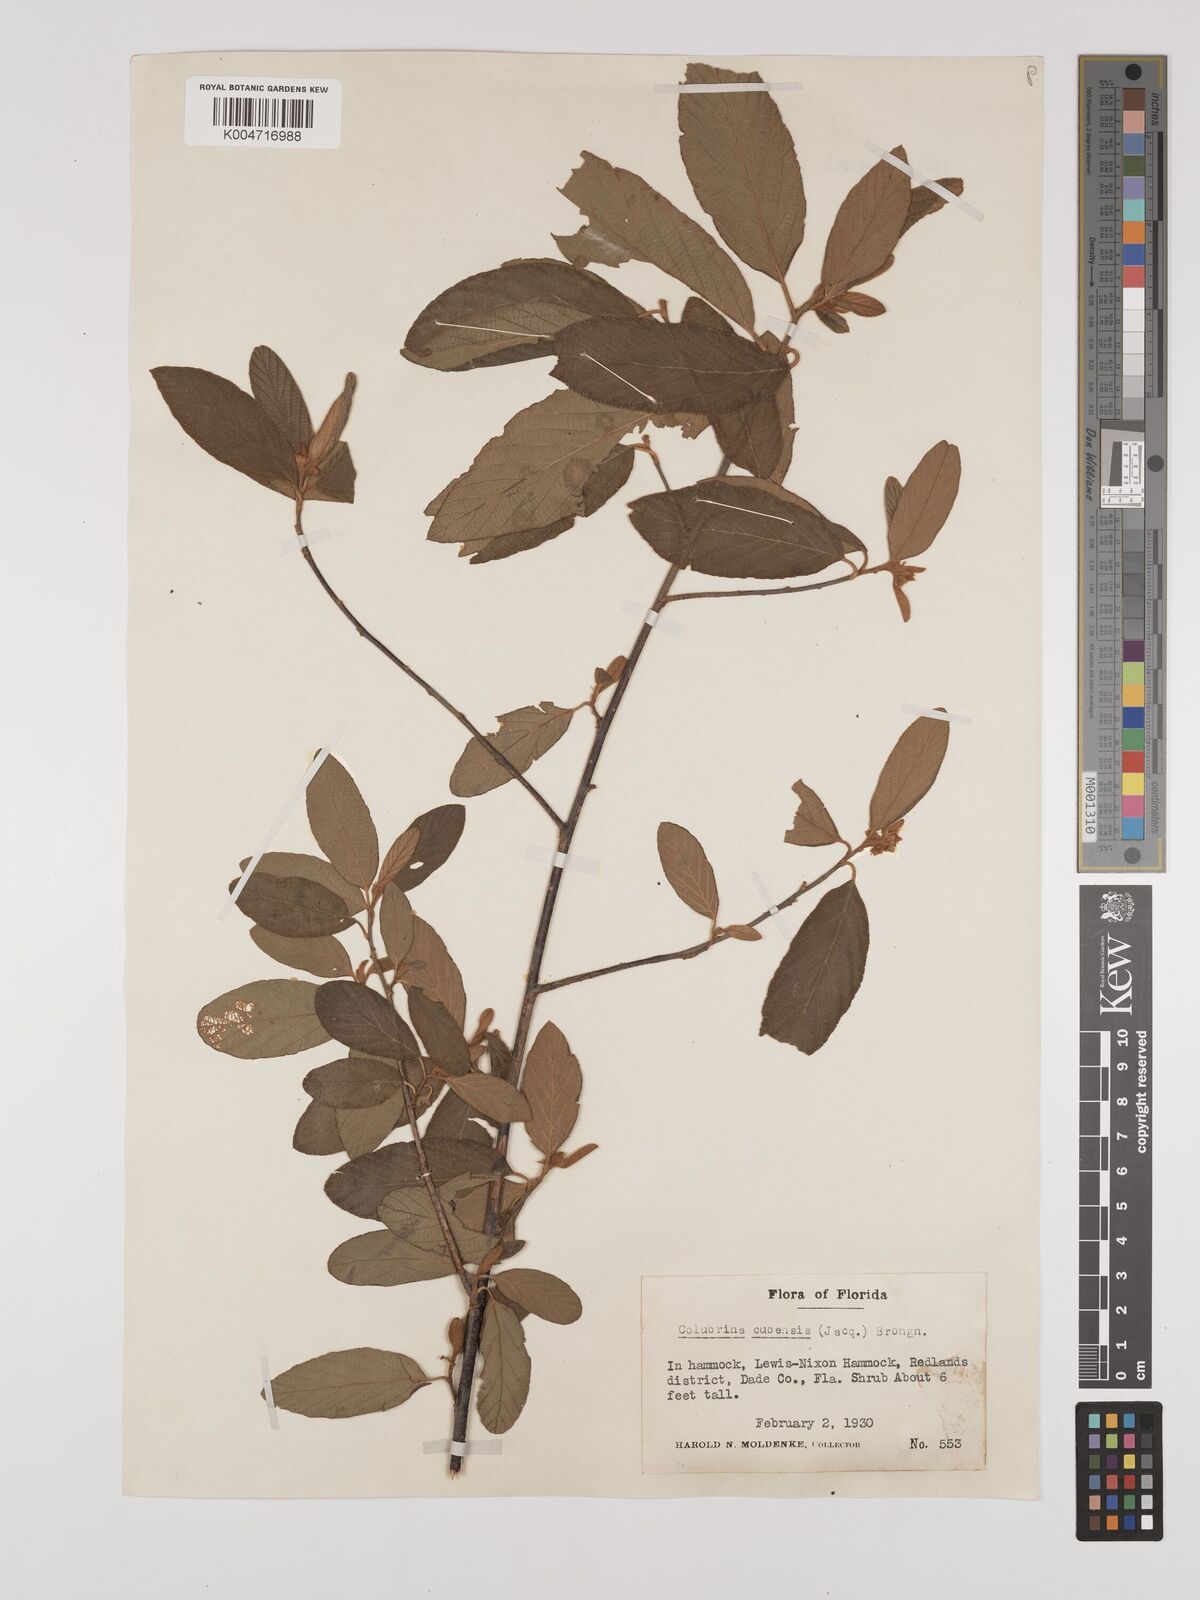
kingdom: Plantae
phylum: Tracheophyta
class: Magnoliopsida
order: Rosales
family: Rhamnaceae
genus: Colubrina
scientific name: Colubrina cubensis
